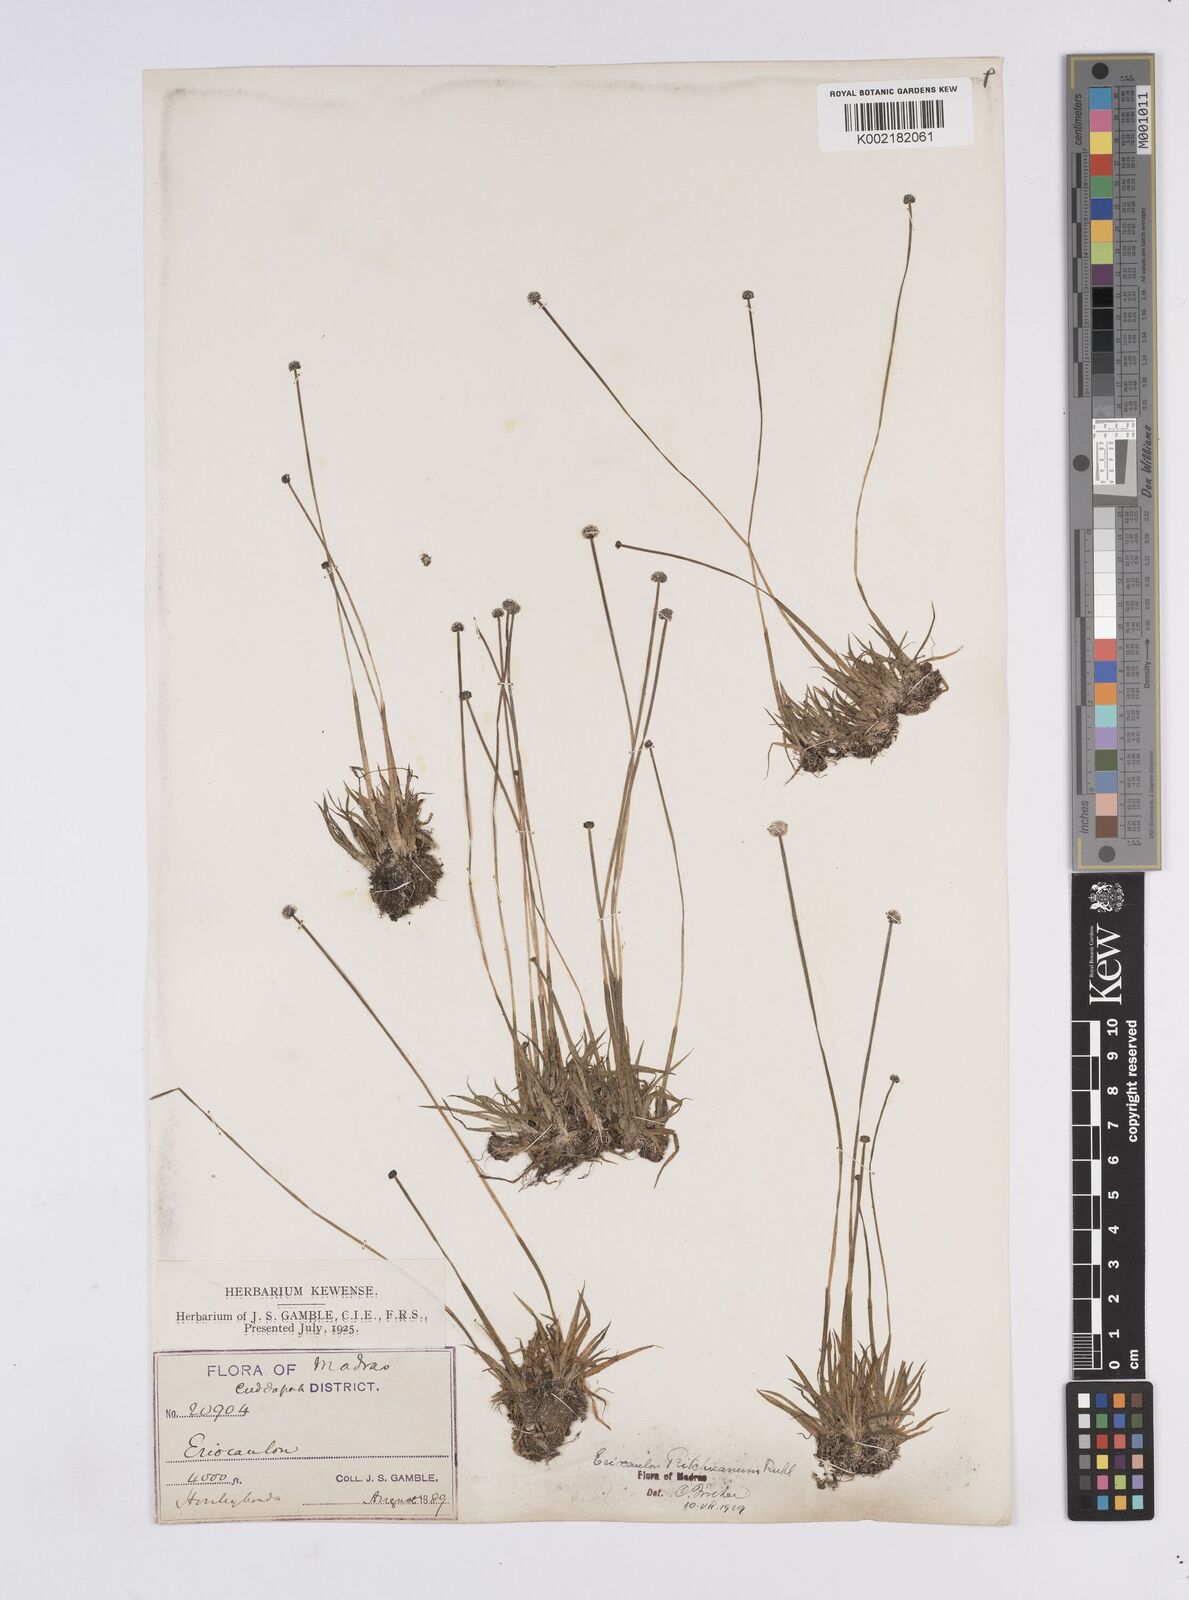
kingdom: Plantae
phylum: Tracheophyta
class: Liliopsida
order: Poales
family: Eriocaulaceae
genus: Eriocaulon
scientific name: Eriocaulon ritchieanum
